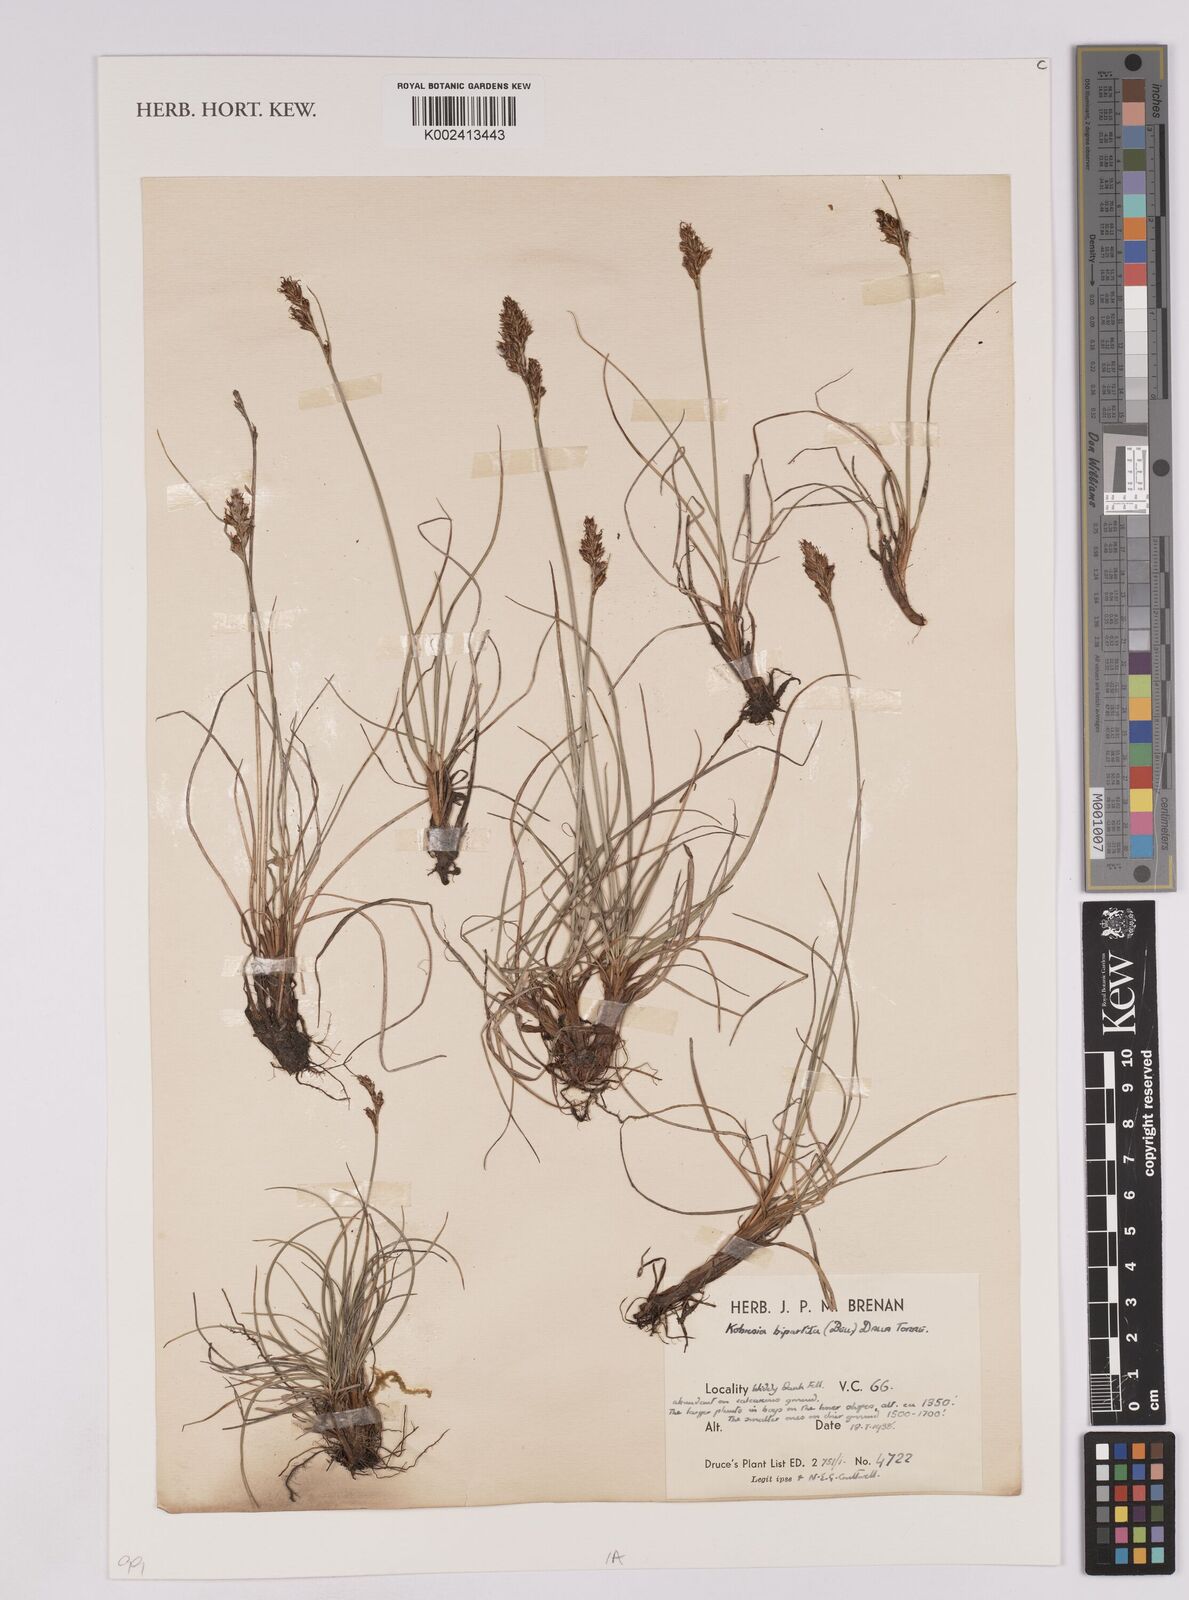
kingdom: Plantae
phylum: Tracheophyta
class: Liliopsida
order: Poales
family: Cyperaceae
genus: Carex
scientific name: Carex kobresioidea
